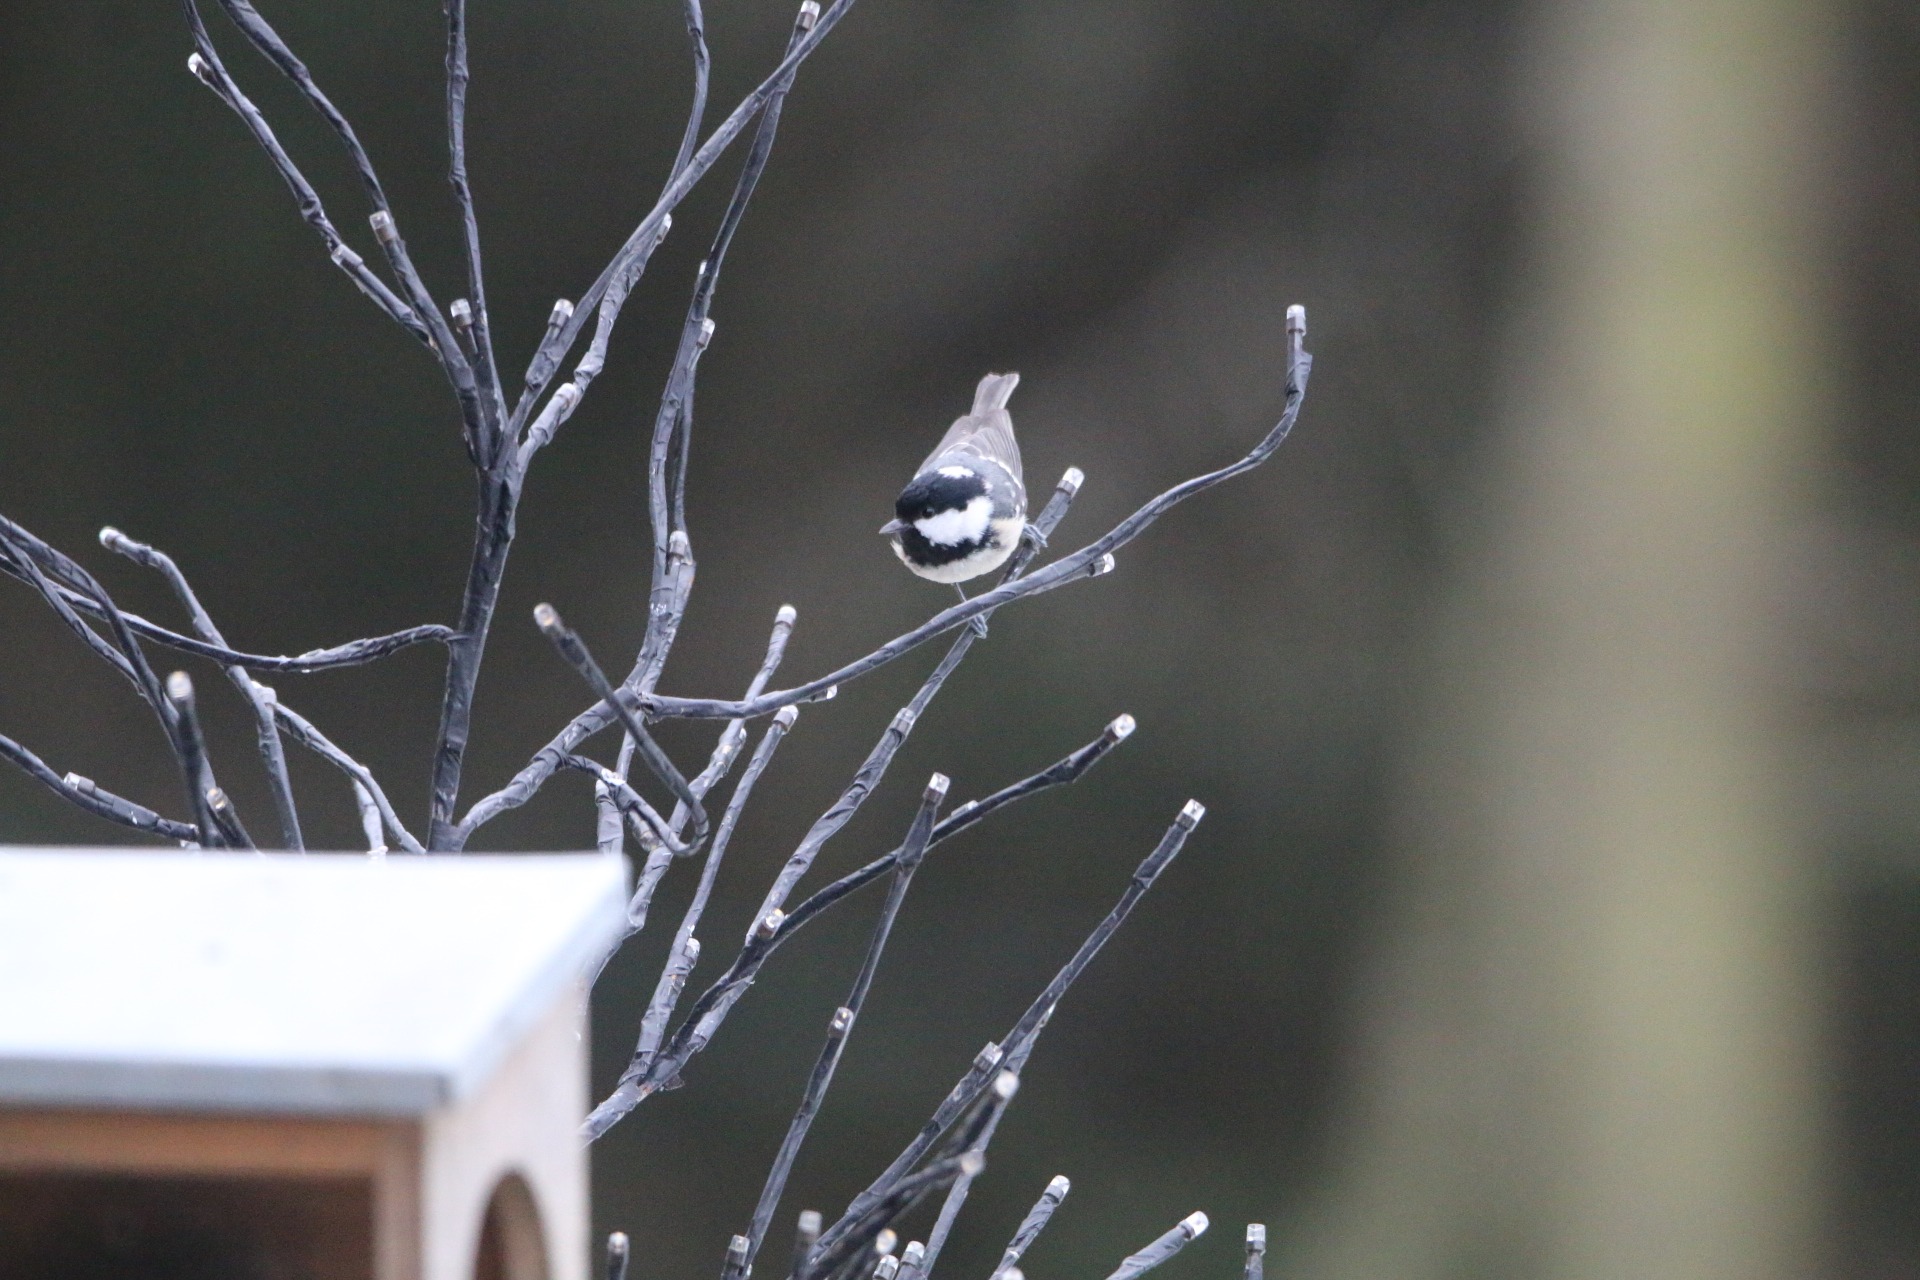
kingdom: Animalia
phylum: Chordata
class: Aves
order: Passeriformes
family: Paridae
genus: Periparus
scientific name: Periparus ater
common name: Sortmejse
